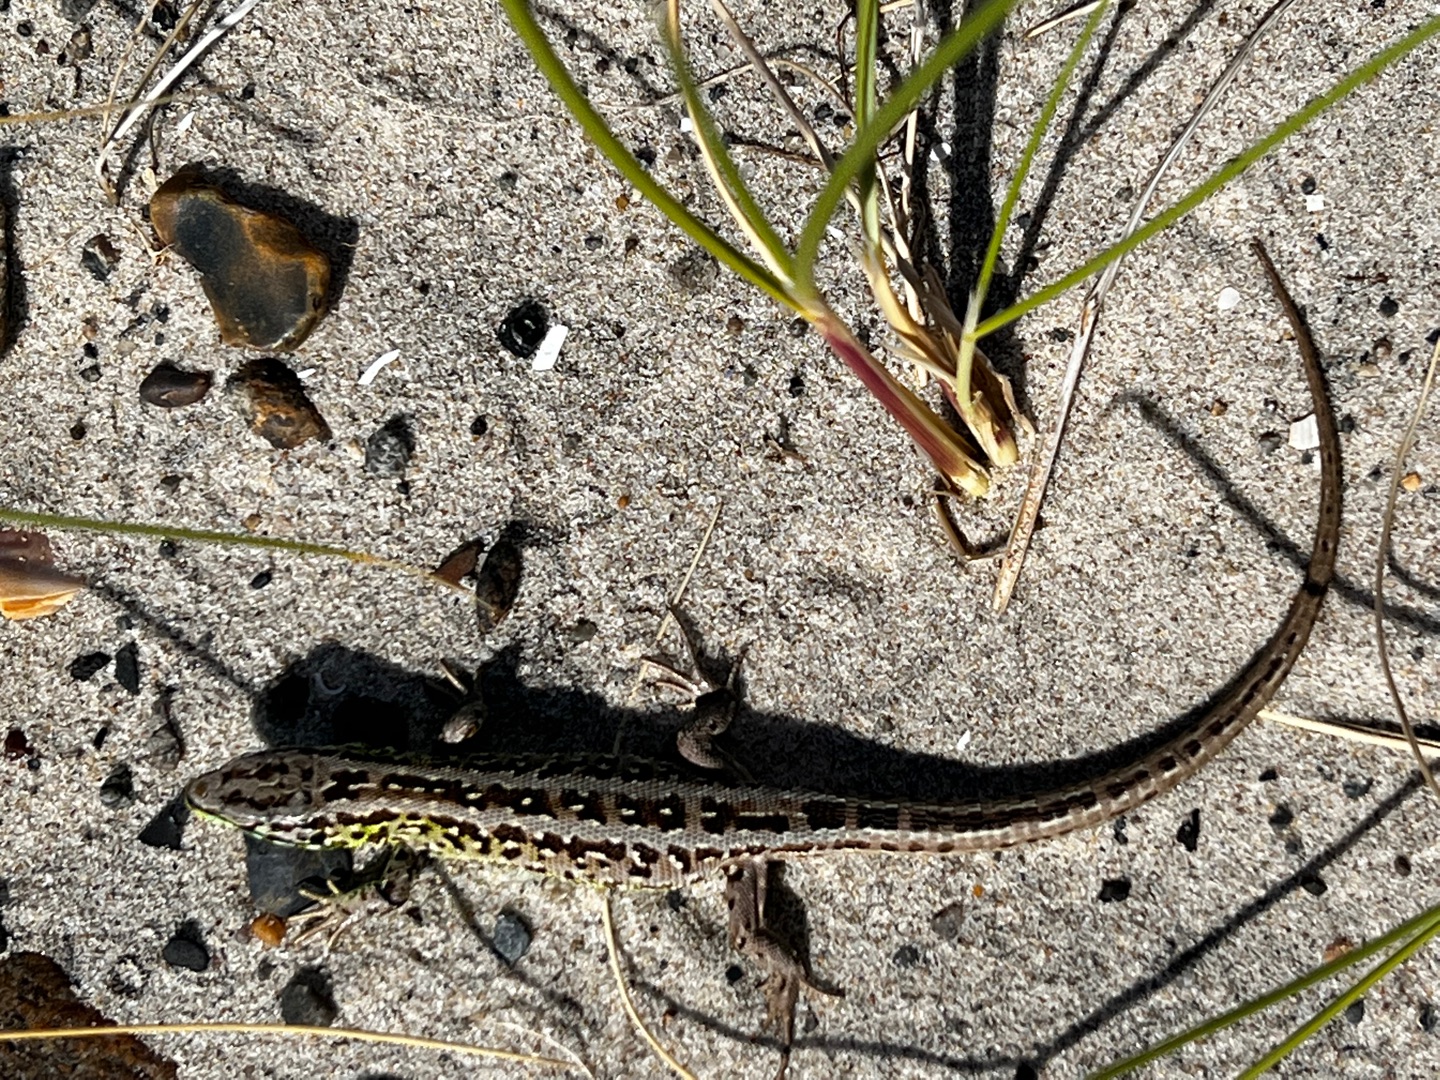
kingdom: Animalia
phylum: Chordata
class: Squamata
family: Lacertidae
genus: Lacerta
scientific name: Lacerta agilis
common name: Markfirben
